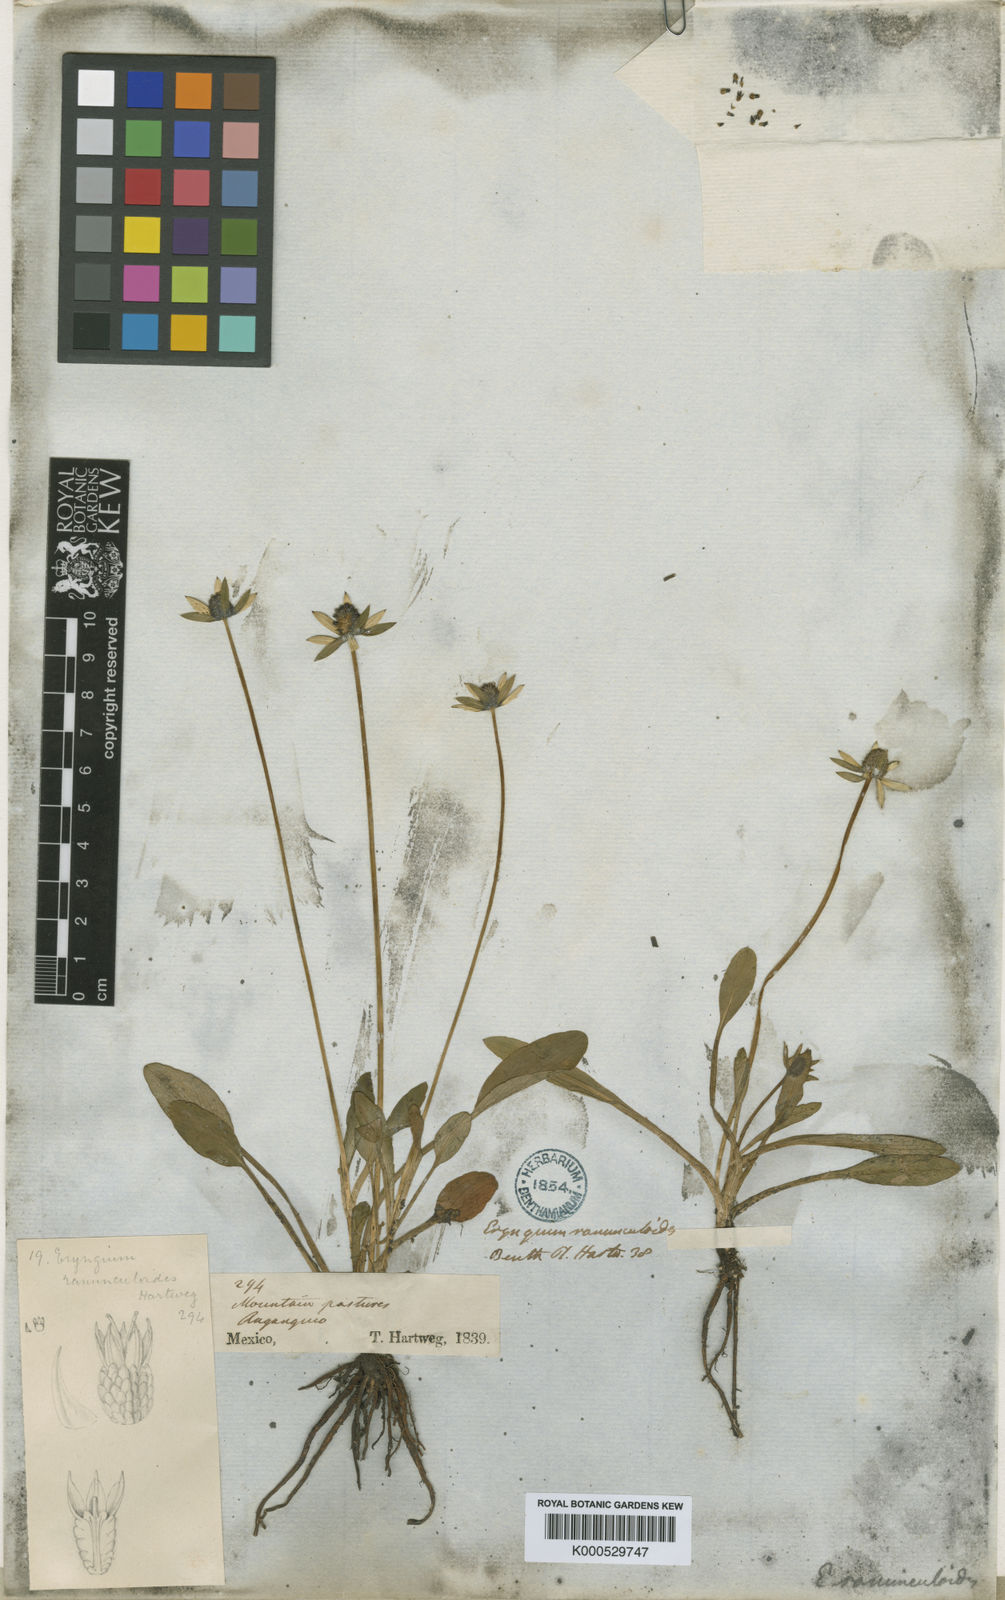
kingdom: Plantae
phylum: Tracheophyta
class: Magnoliopsida
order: Apiales
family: Apiaceae
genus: Eryngium
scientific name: Eryngium subacaule
